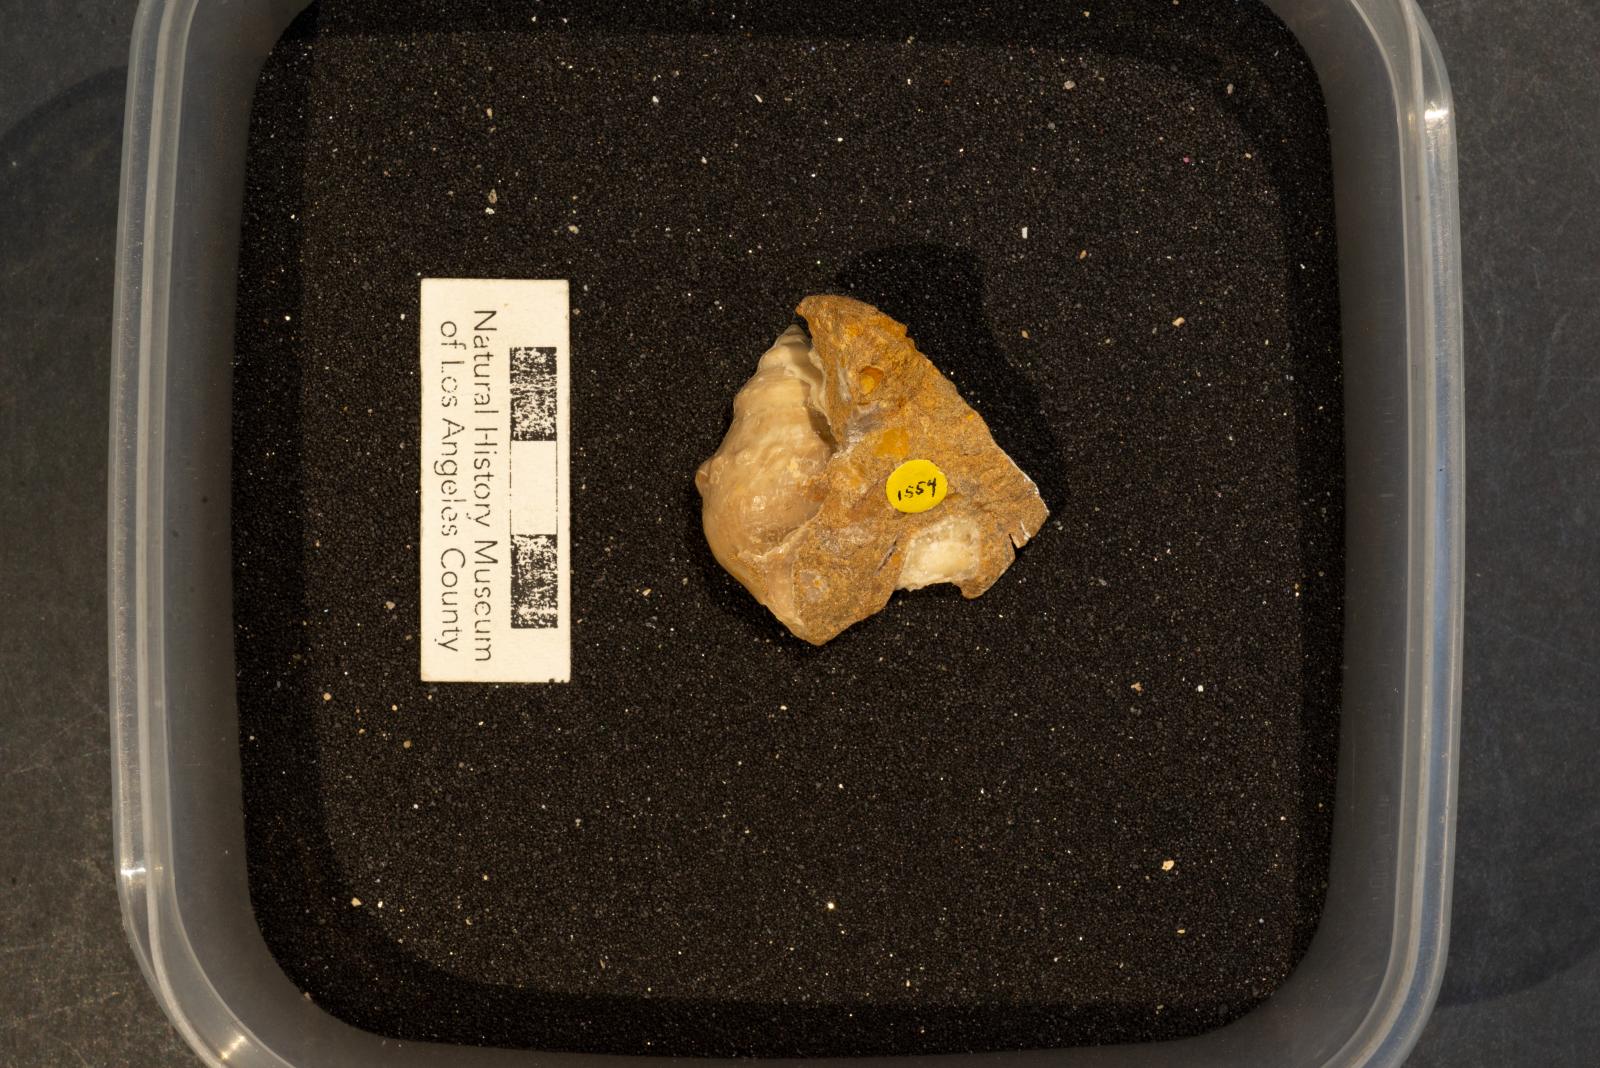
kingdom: Animalia
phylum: Mollusca
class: Gastropoda
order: Littorinimorpha
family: Aporrhaidae
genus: Pyktes
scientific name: Pyktes Pugnellus hamulus
